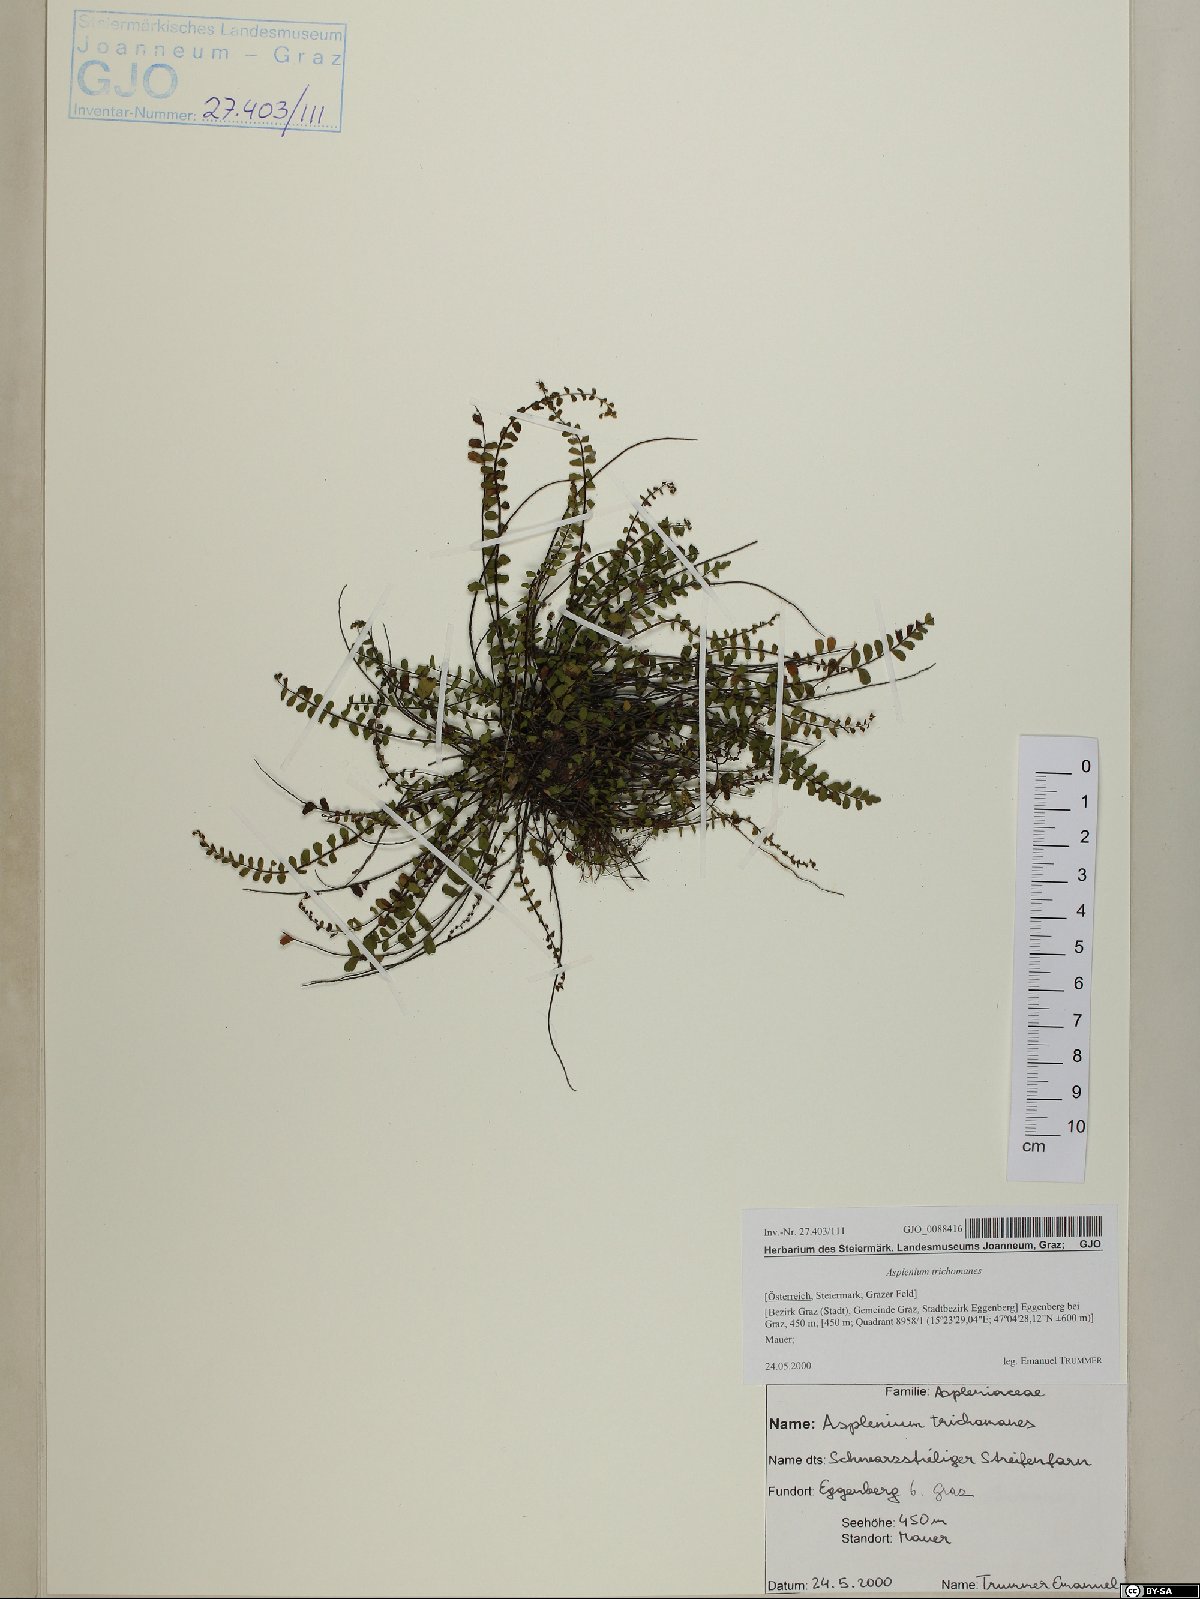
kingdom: Plantae
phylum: Tracheophyta
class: Polypodiopsida
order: Polypodiales
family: Aspleniaceae
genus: Asplenium
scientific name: Asplenium trichomanes
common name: Maidenhair spleenwort
